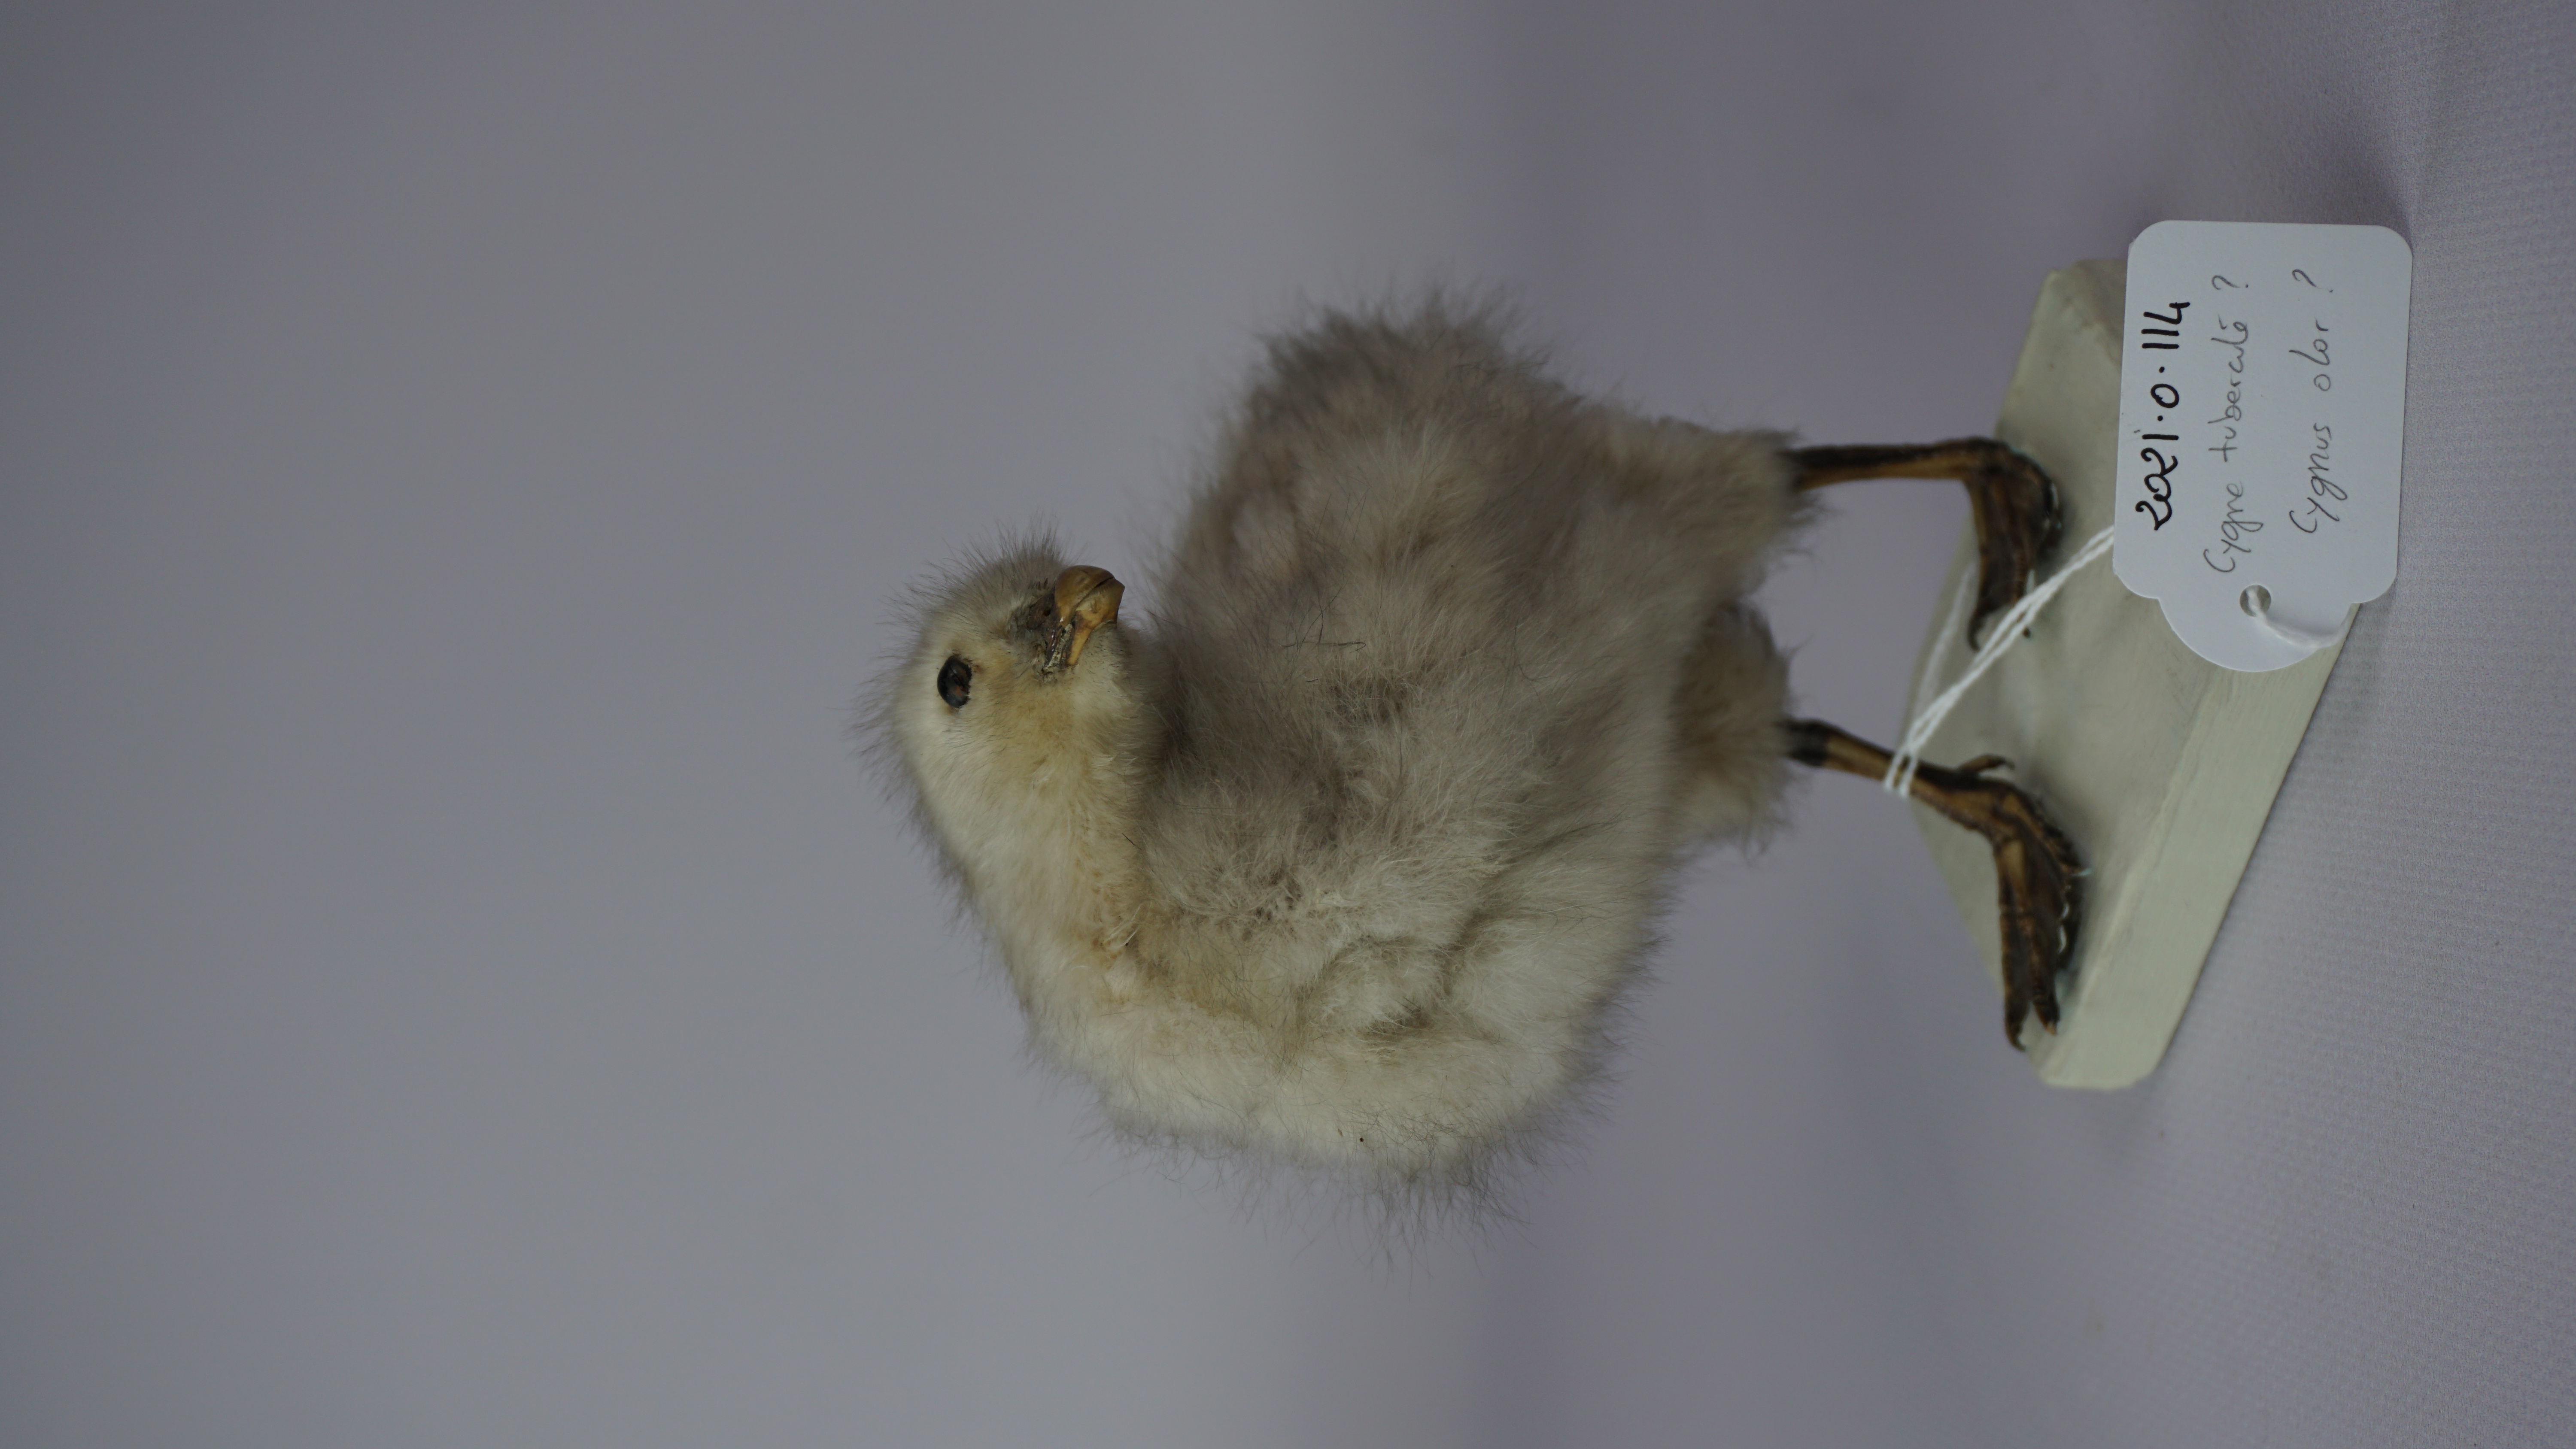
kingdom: Animalia
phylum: Chordata
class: Aves
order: Anseriformes
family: Anatidae
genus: Cygnus
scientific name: Cygnus olor
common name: Mute swan
